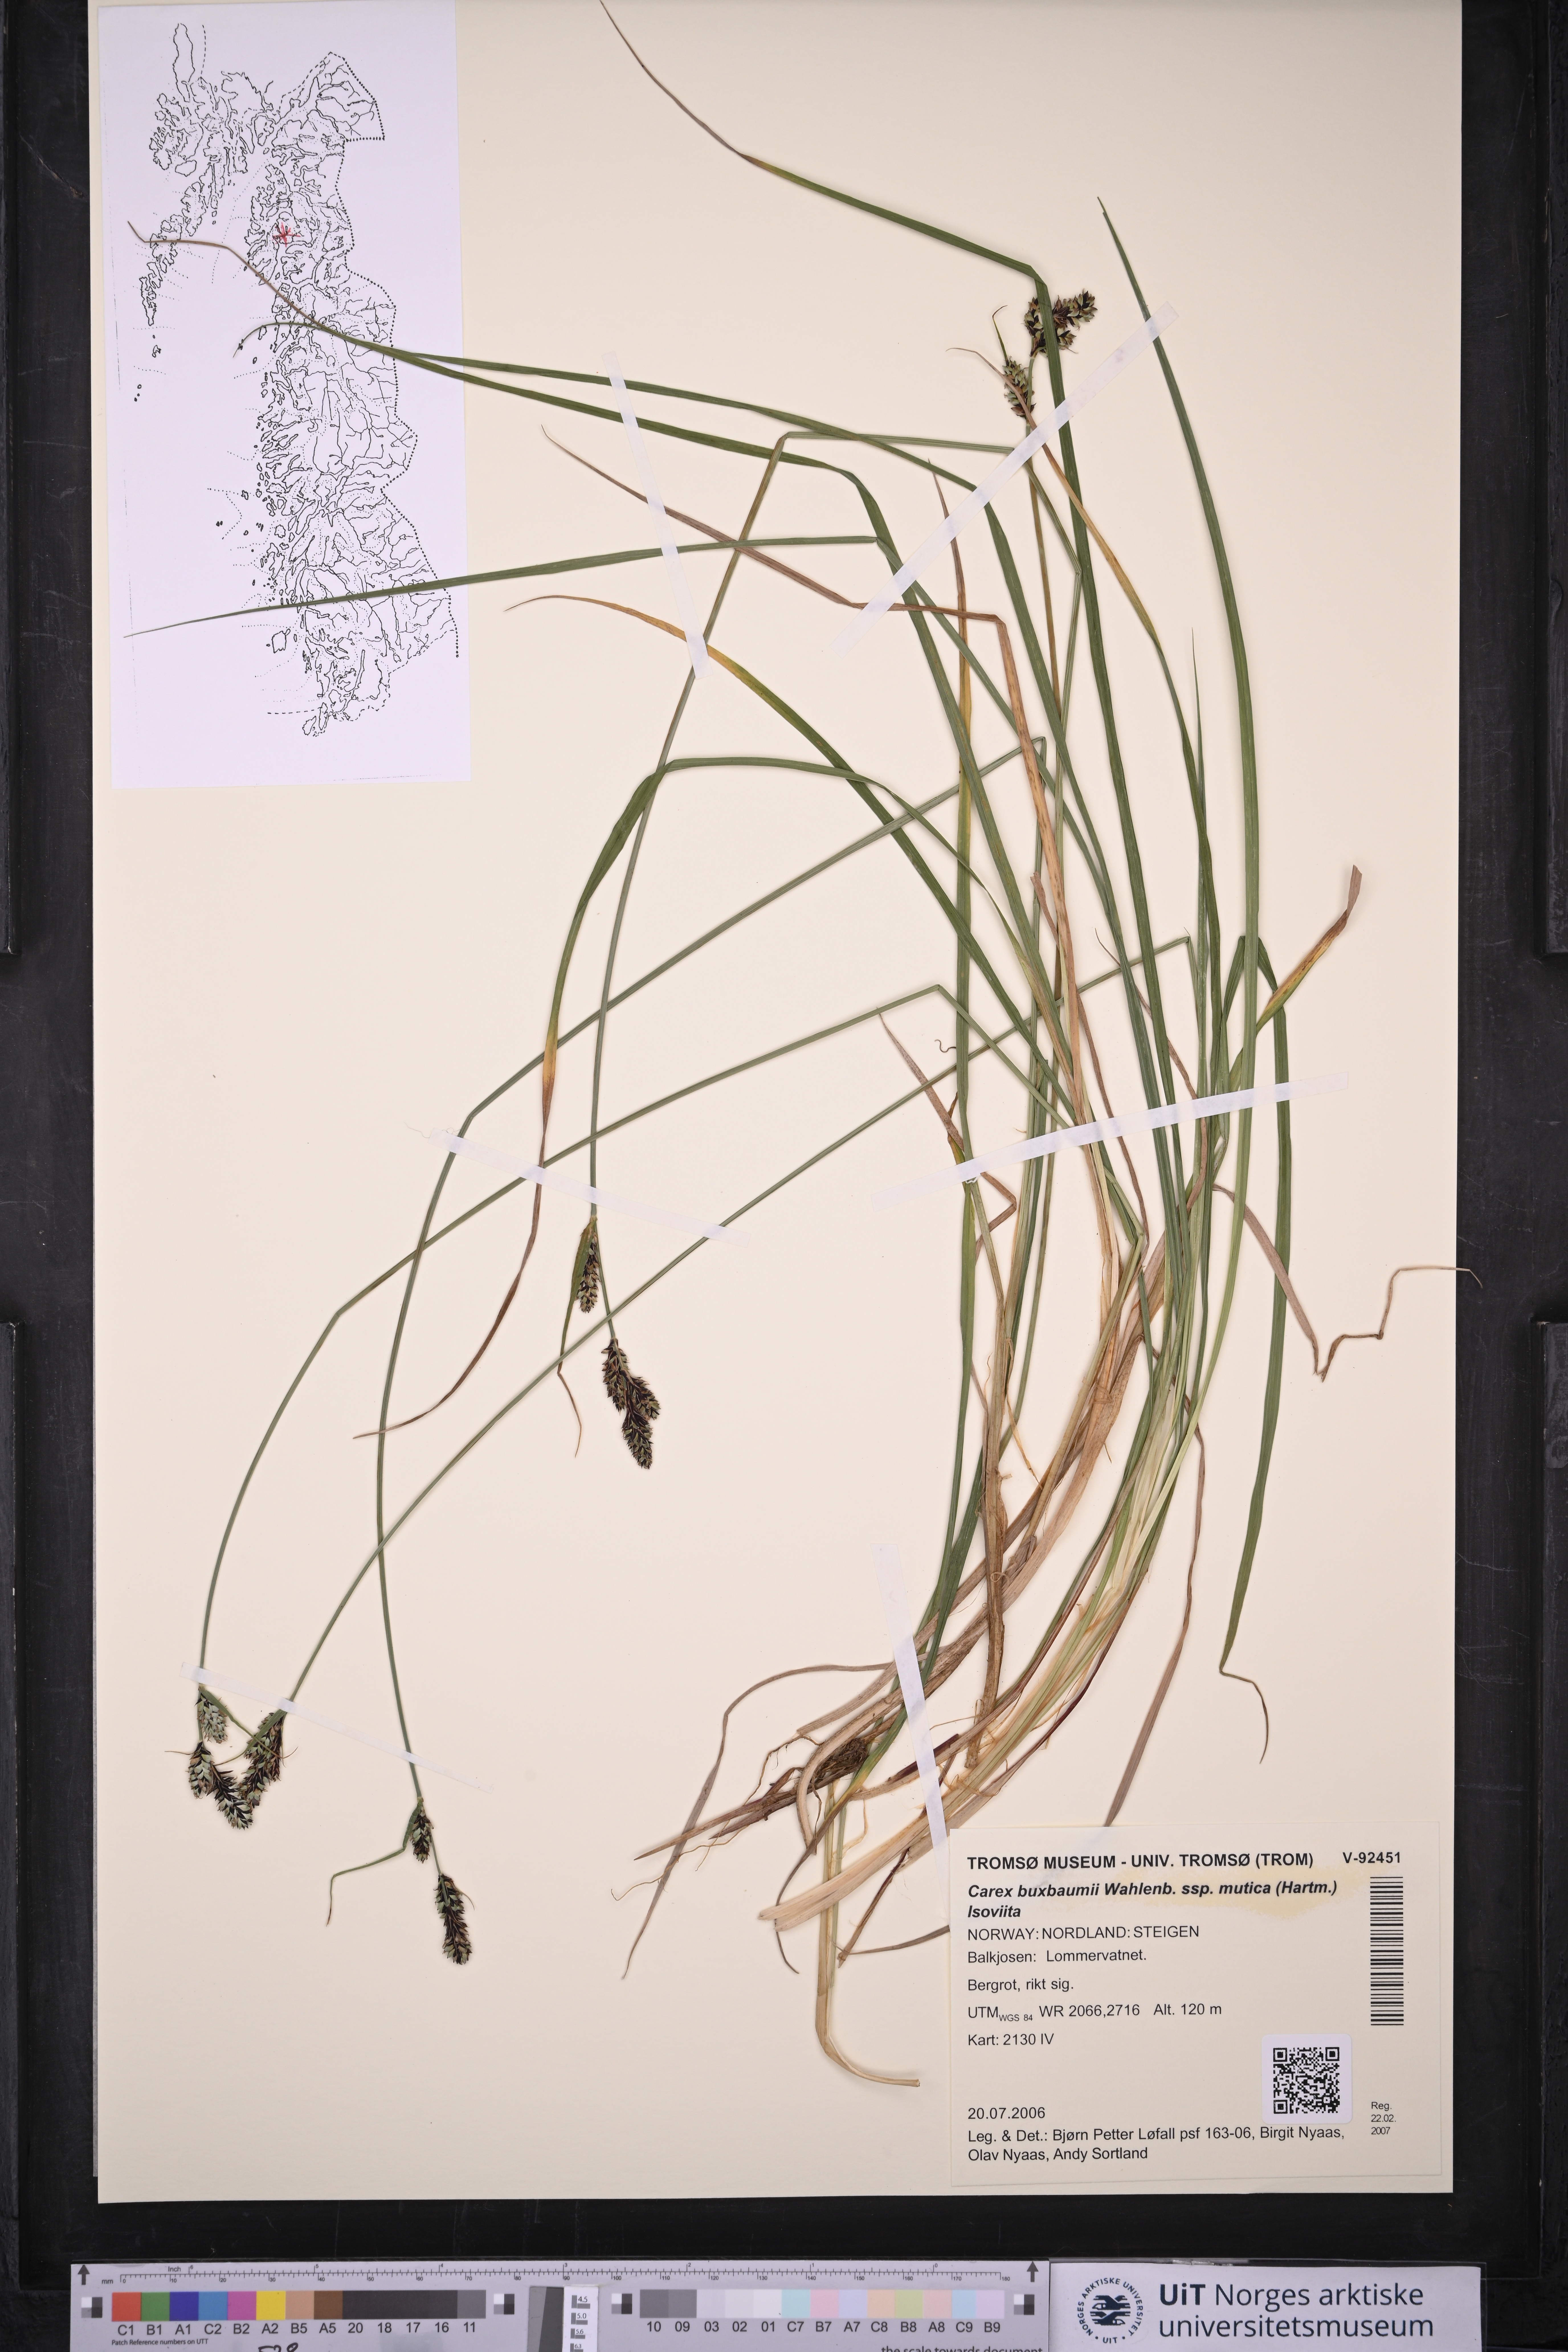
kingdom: Plantae
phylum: Tracheophyta
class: Liliopsida
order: Poales
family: Cyperaceae
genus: Carex
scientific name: Carex adelostoma
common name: Circumpolar sedge
